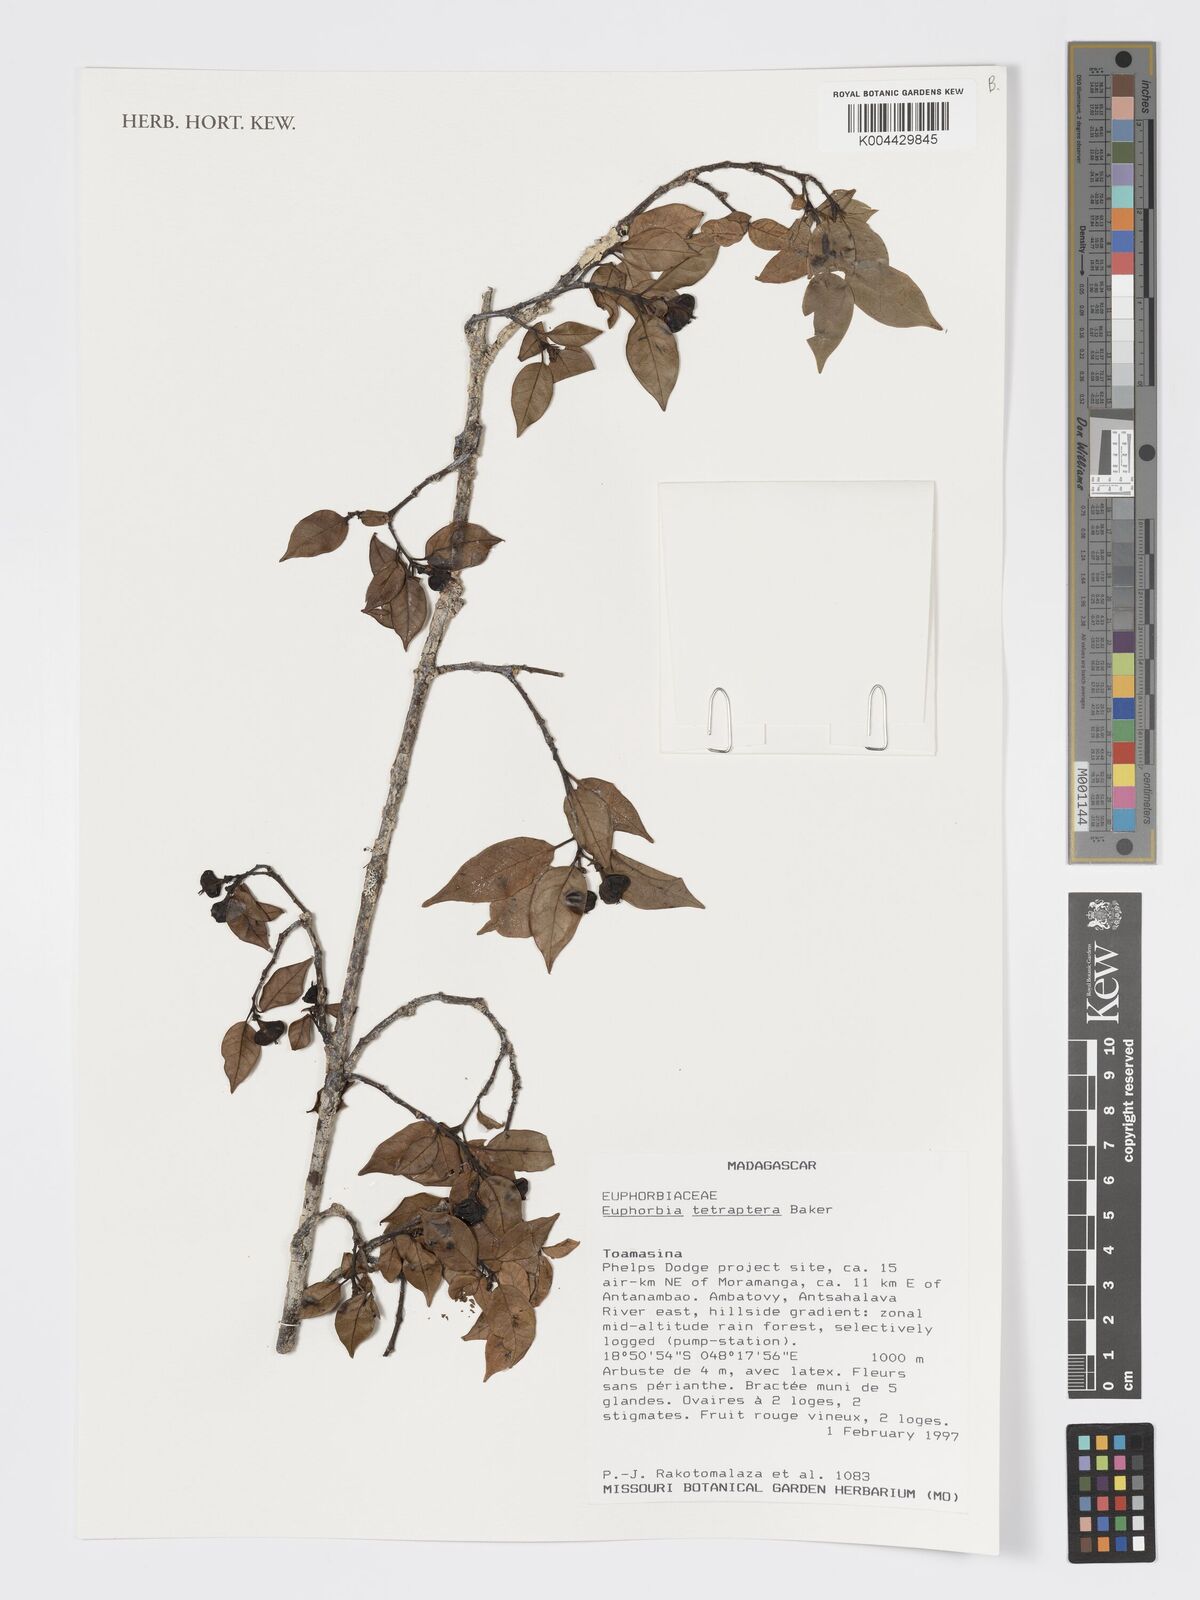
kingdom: Plantae
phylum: Tracheophyta
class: Magnoliopsida
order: Malpighiales
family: Euphorbiaceae
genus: Euphorbia
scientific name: Euphorbia tetraptera
